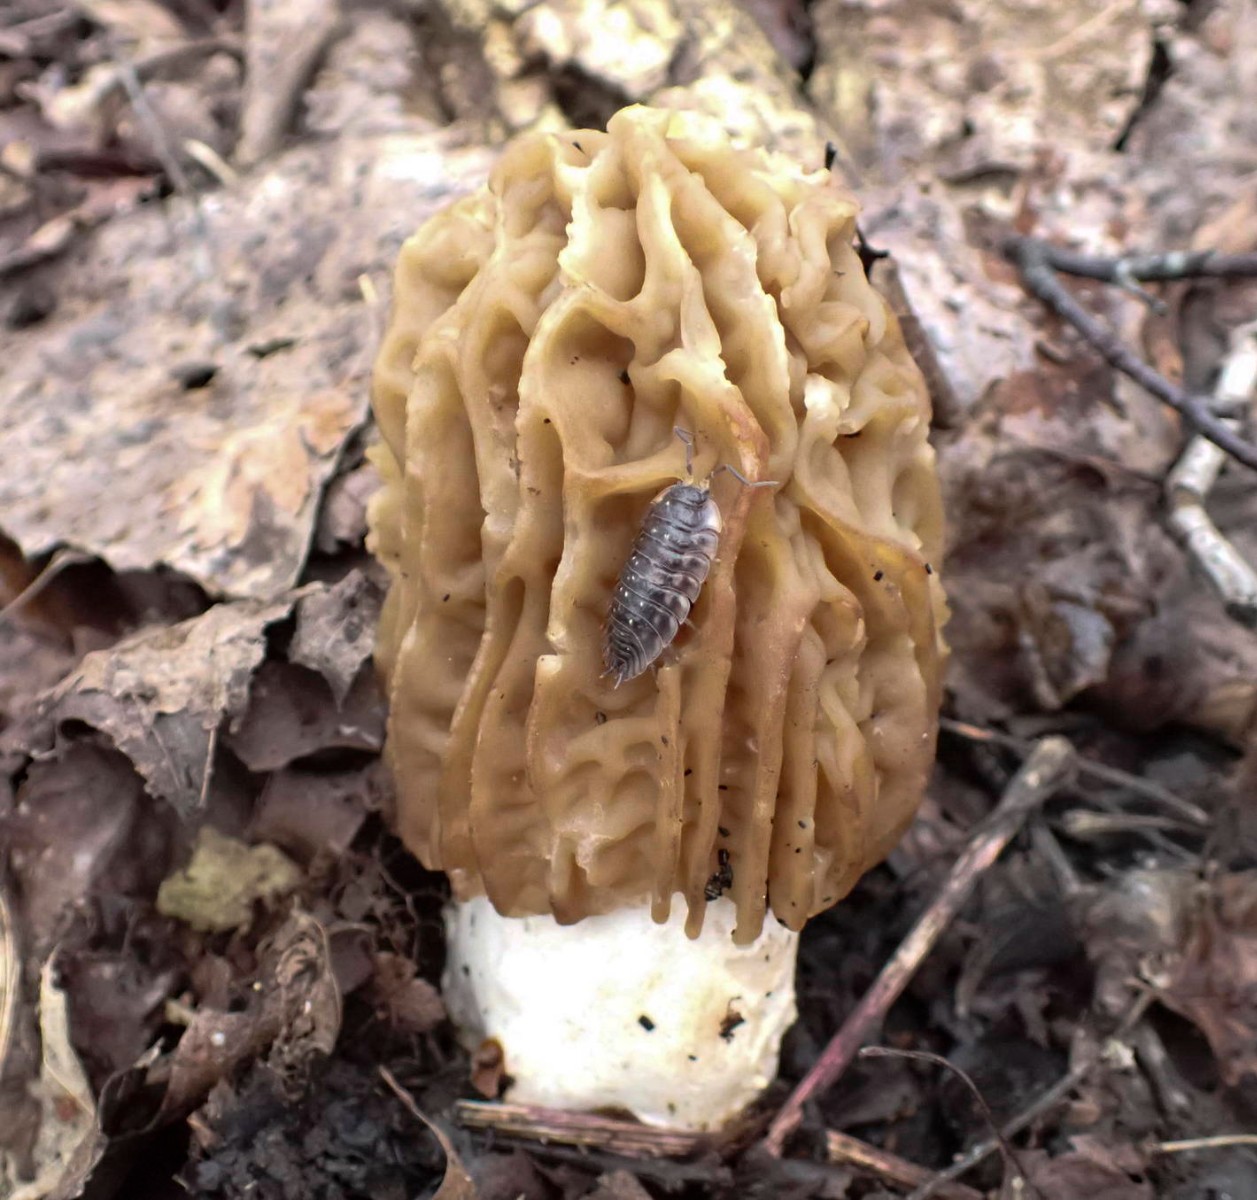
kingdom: Fungi
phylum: Ascomycota
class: Pezizomycetes
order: Pezizales
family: Morchellaceae
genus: Verpa
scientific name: Verpa bohemica
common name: rynket klokkemorkel
